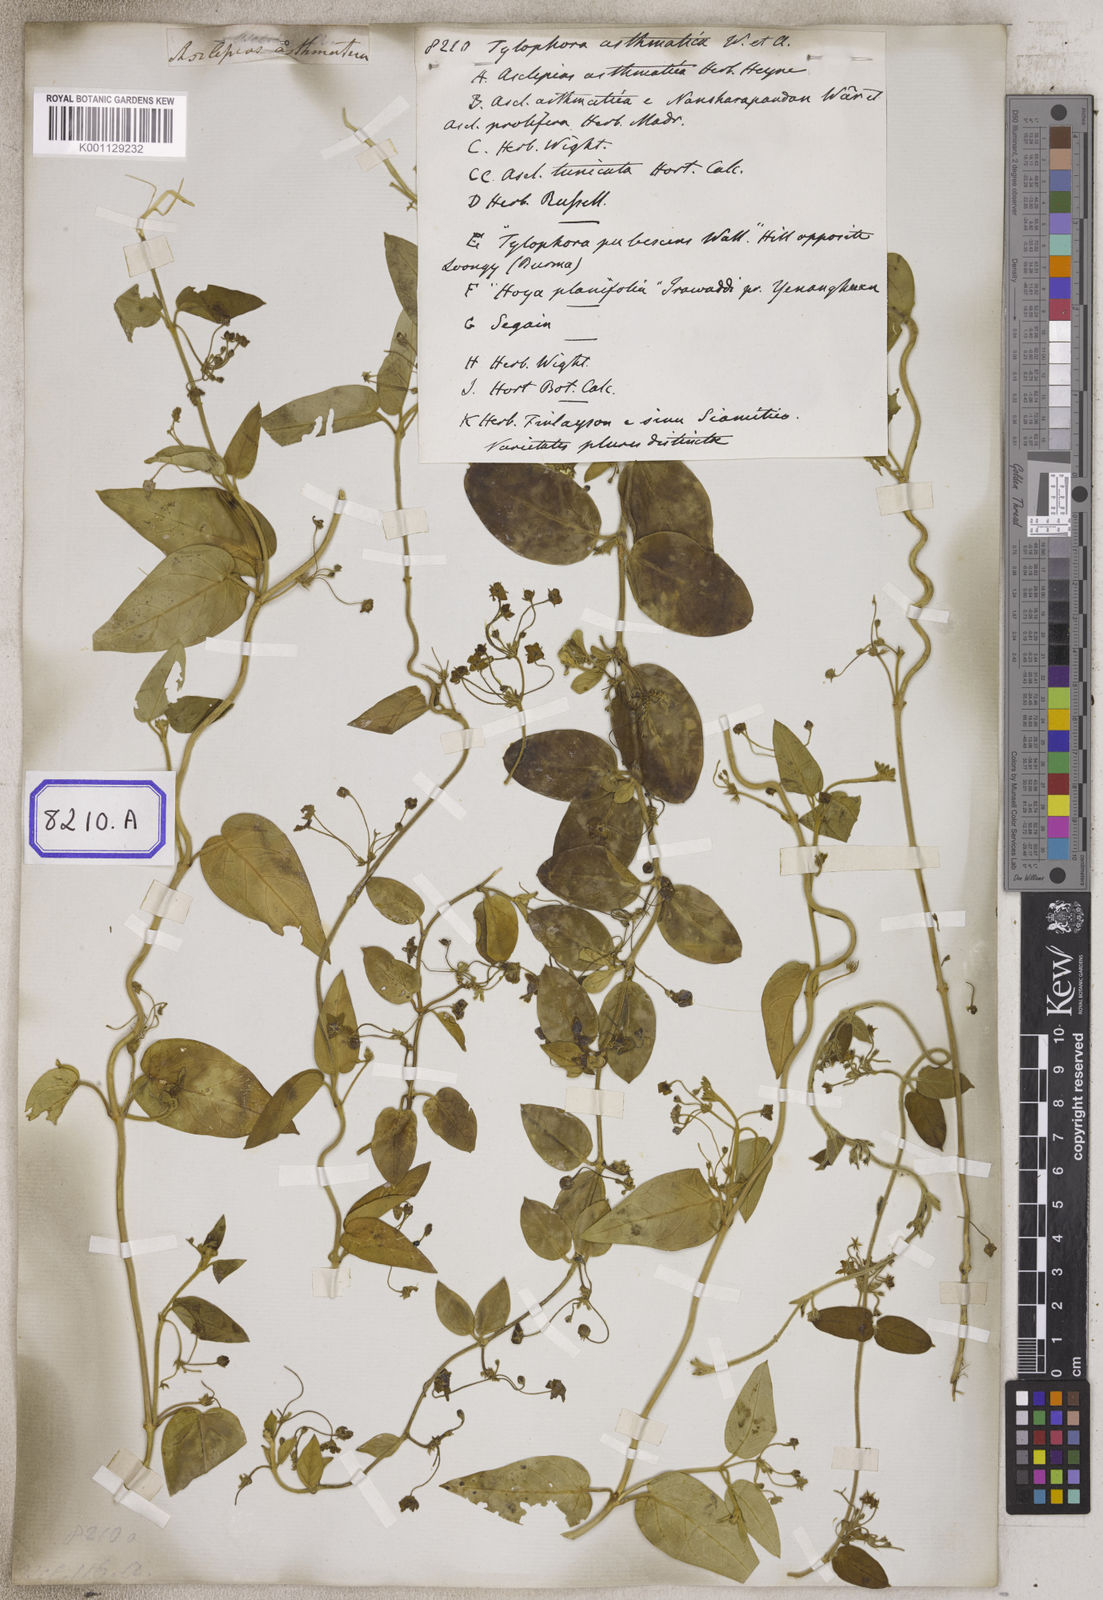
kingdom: Plantae
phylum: Tracheophyta
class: Magnoliopsida
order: Gentianales
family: Apocynaceae
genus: Vincetoxicum
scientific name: Vincetoxicum indicum
